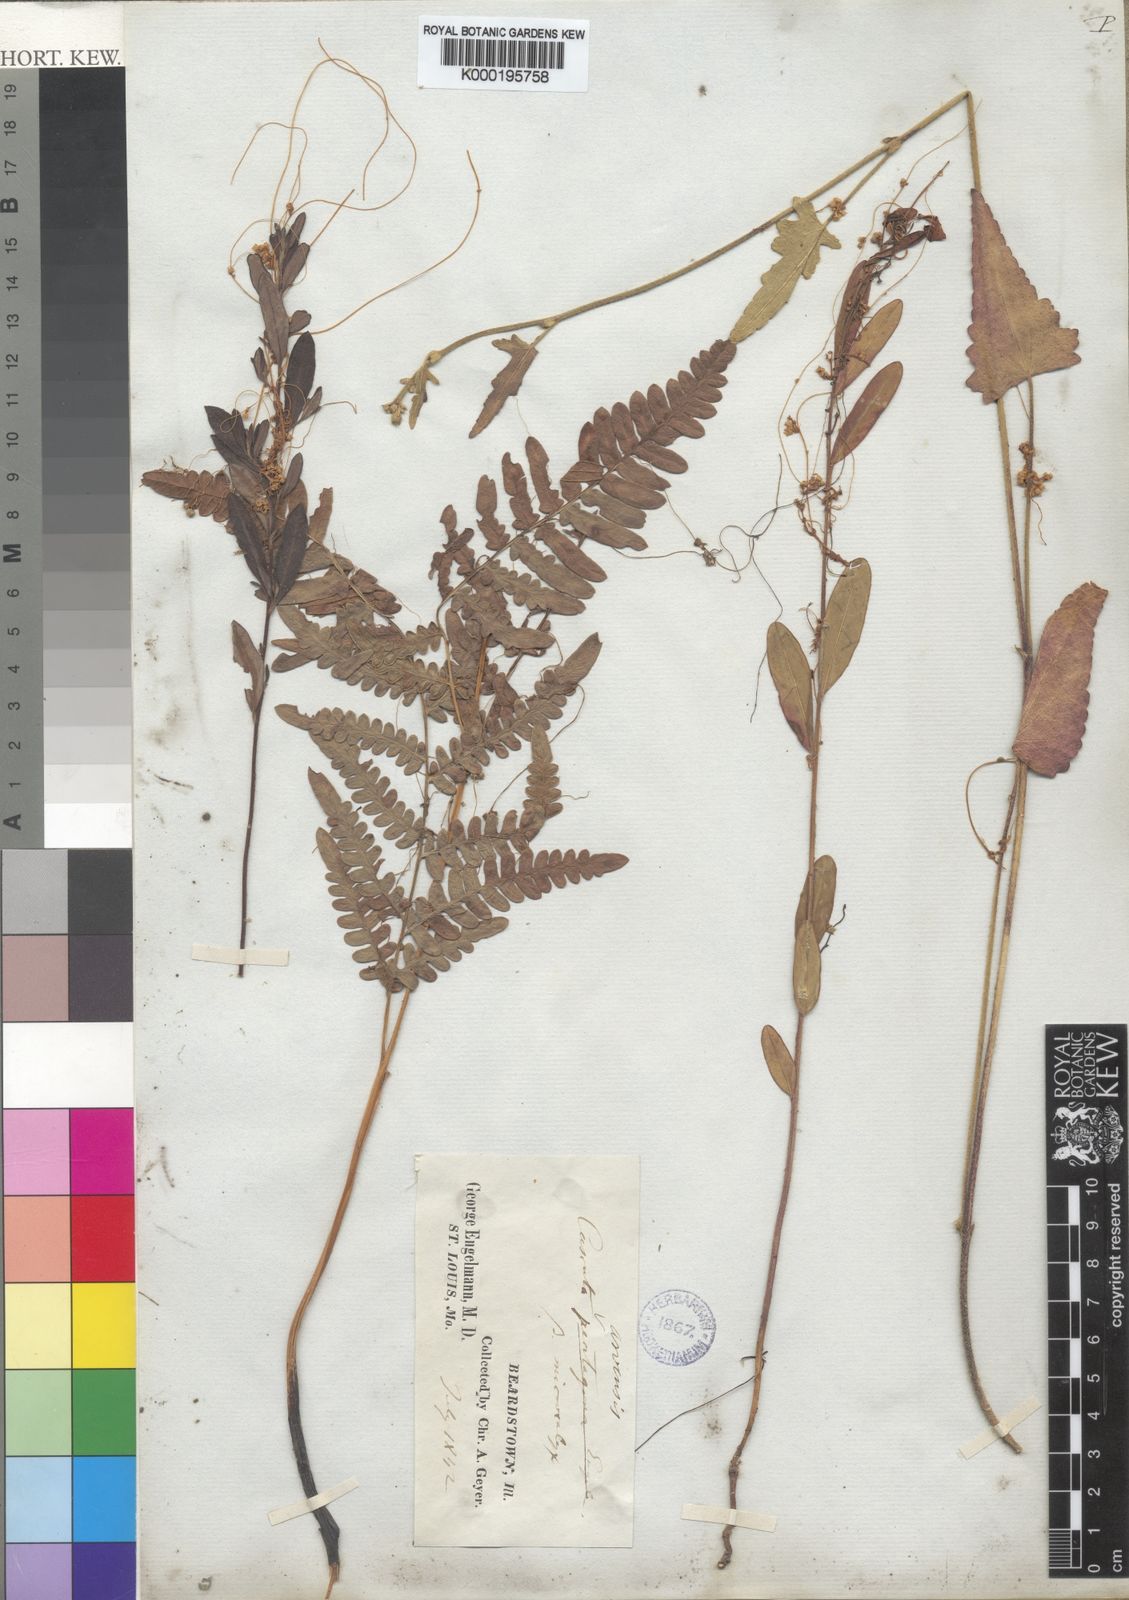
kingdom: Plantae
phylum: Tracheophyta
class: Magnoliopsida
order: Solanales
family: Convolvulaceae
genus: Cuscuta
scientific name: Cuscuta pentagona
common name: Fiveangled dodder
